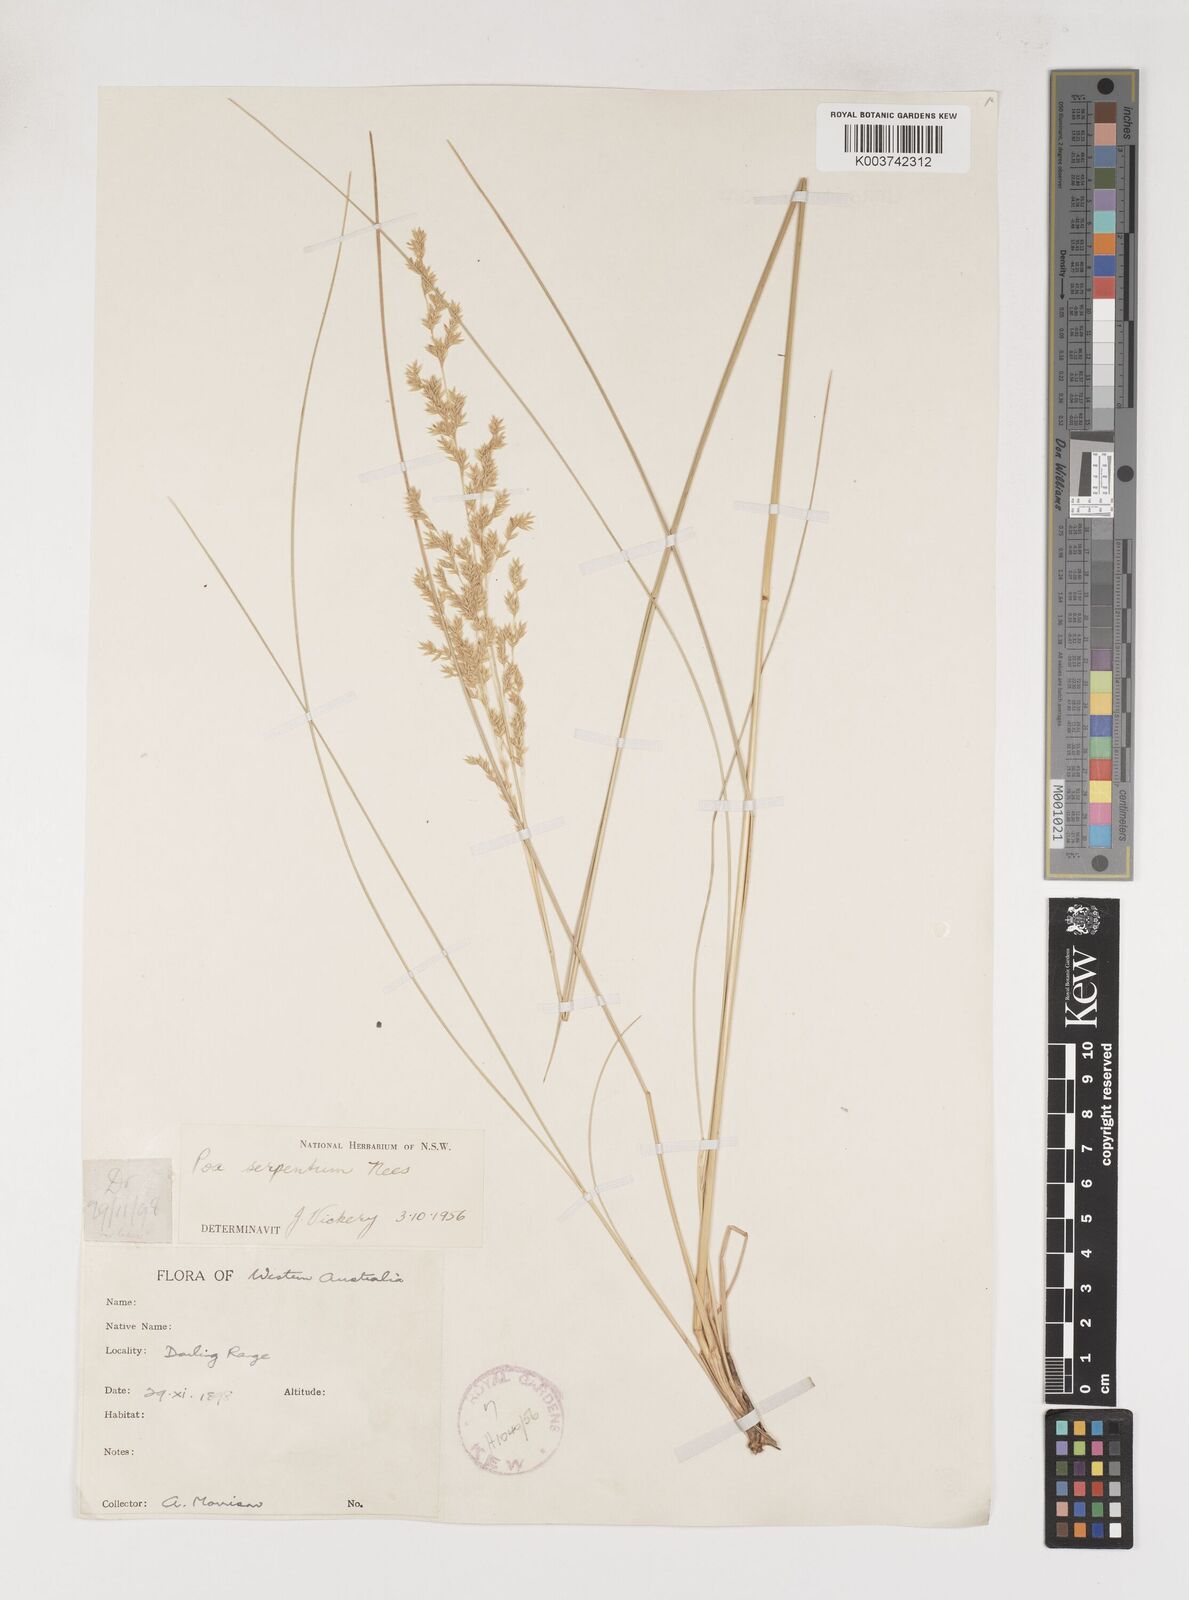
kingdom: Plantae
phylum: Tracheophyta
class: Liliopsida
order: Poales
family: Poaceae
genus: Poa
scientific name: Poa porphyroclados
